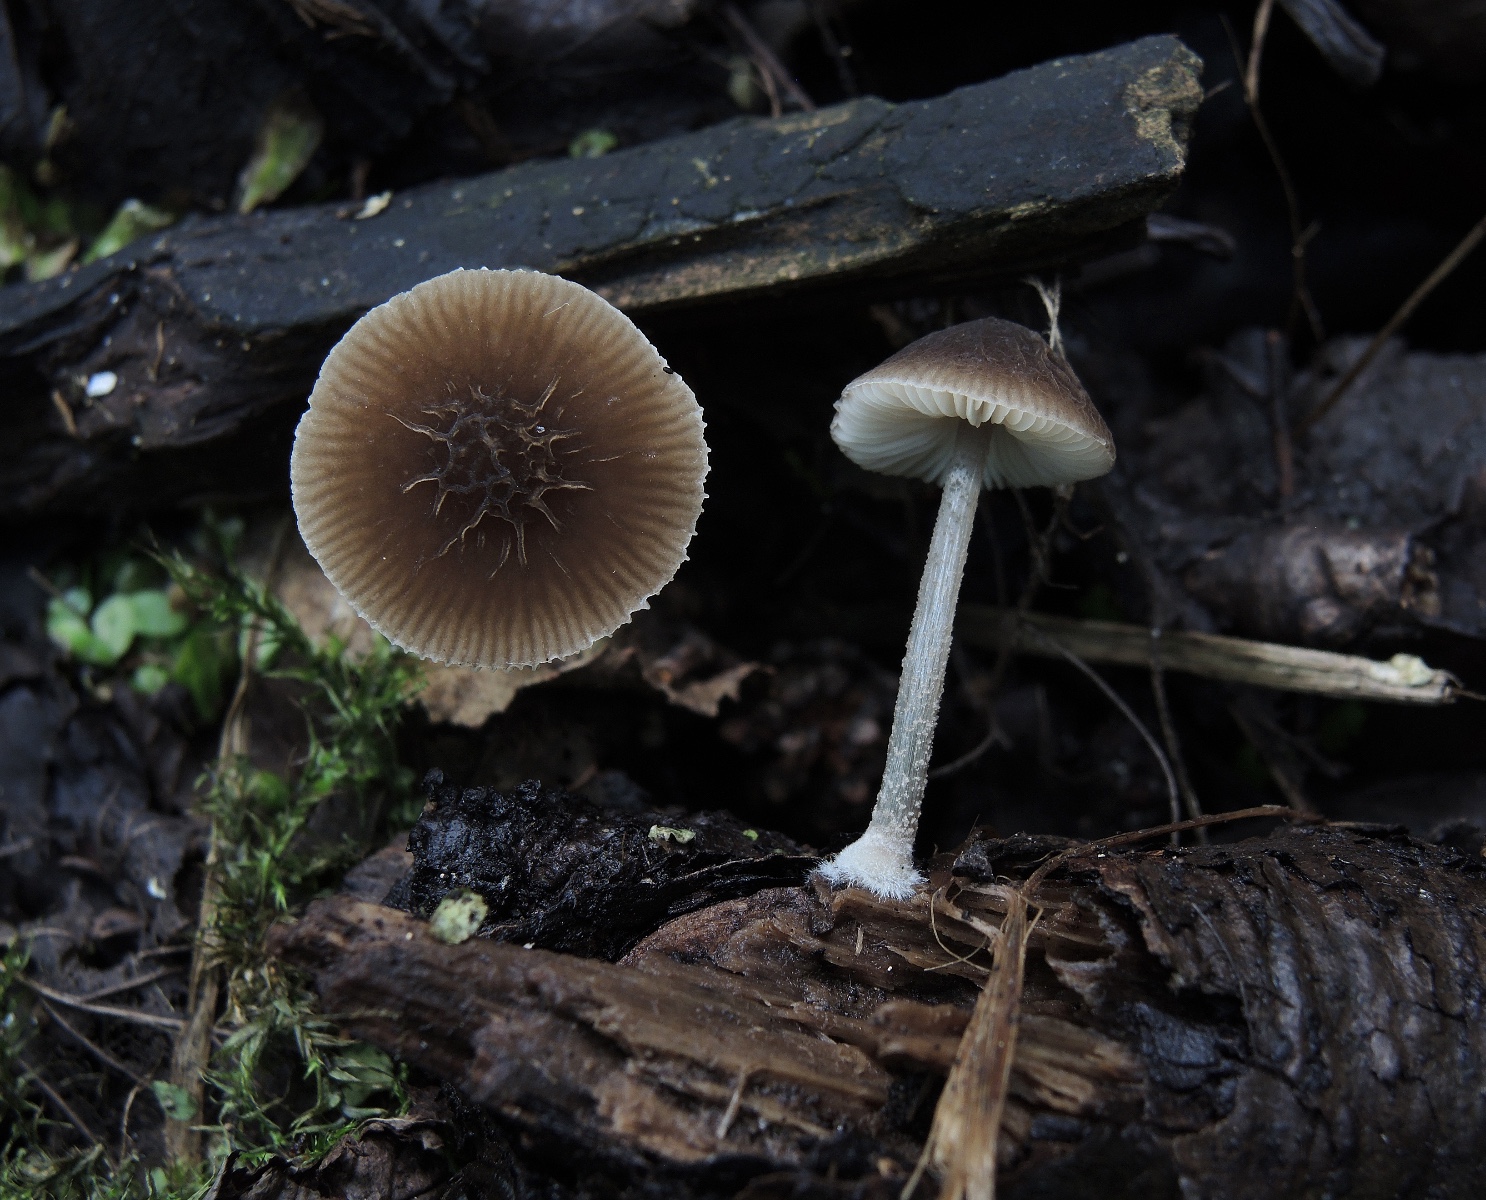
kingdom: Fungi
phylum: Basidiomycota
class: Agaricomycetes
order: Agaricales
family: Pluteaceae
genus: Pluteus
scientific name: Pluteus diverticulatus
